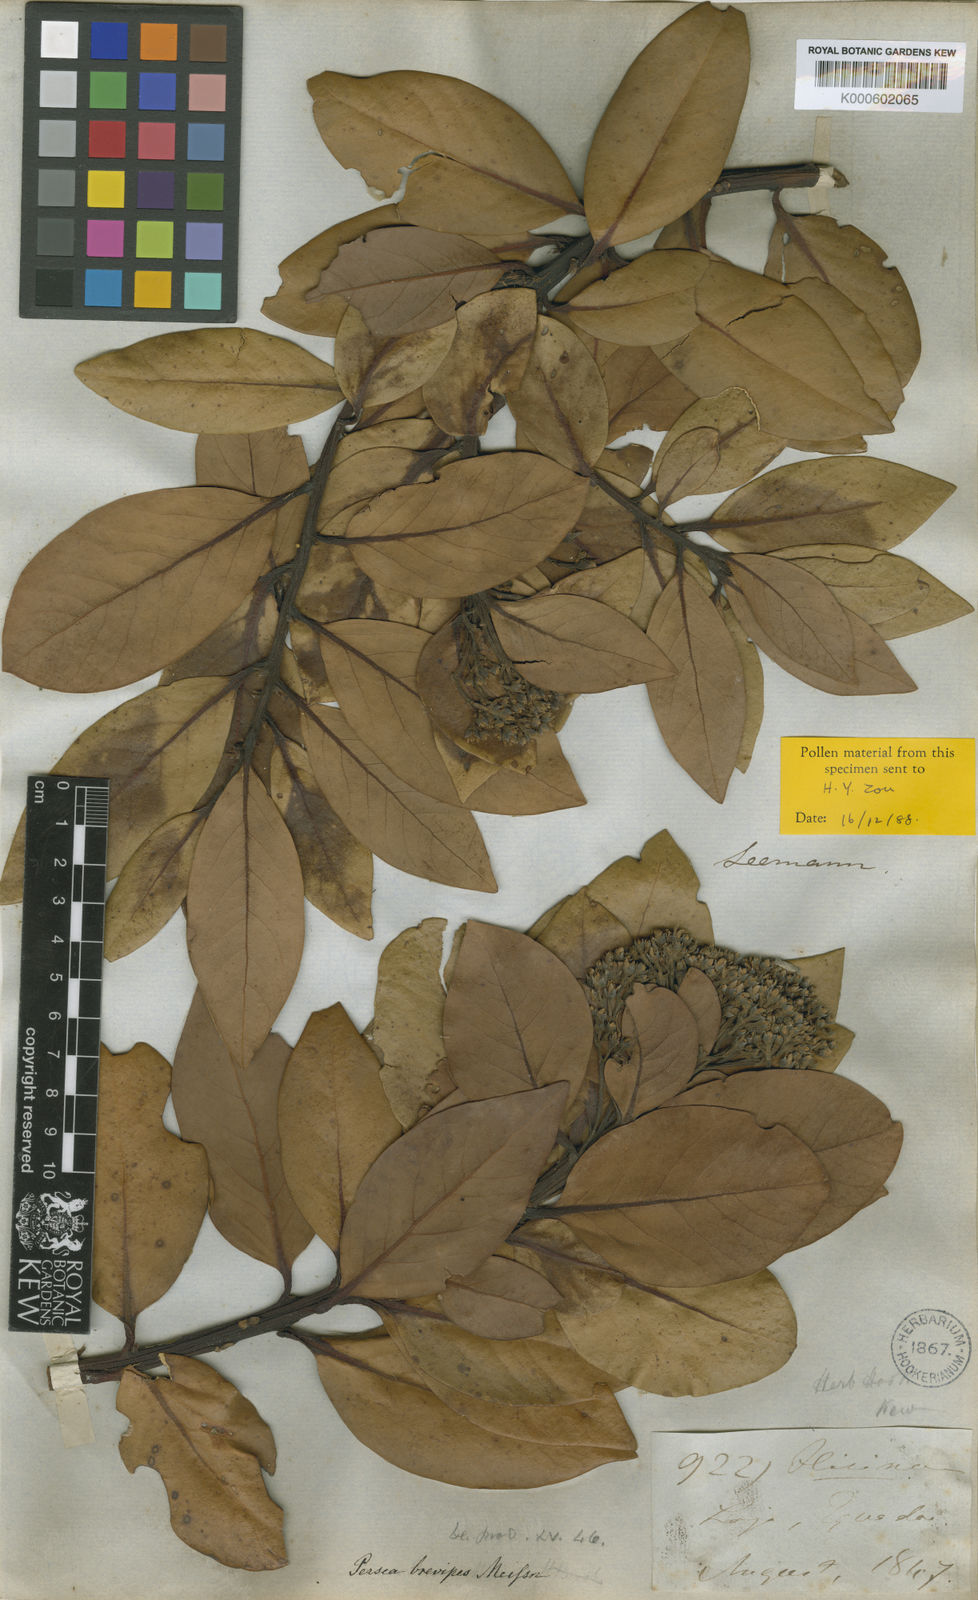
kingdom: Plantae
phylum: Tracheophyta
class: Magnoliopsida
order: Laurales
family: Lauraceae
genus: Persea
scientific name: Persea brevipes
